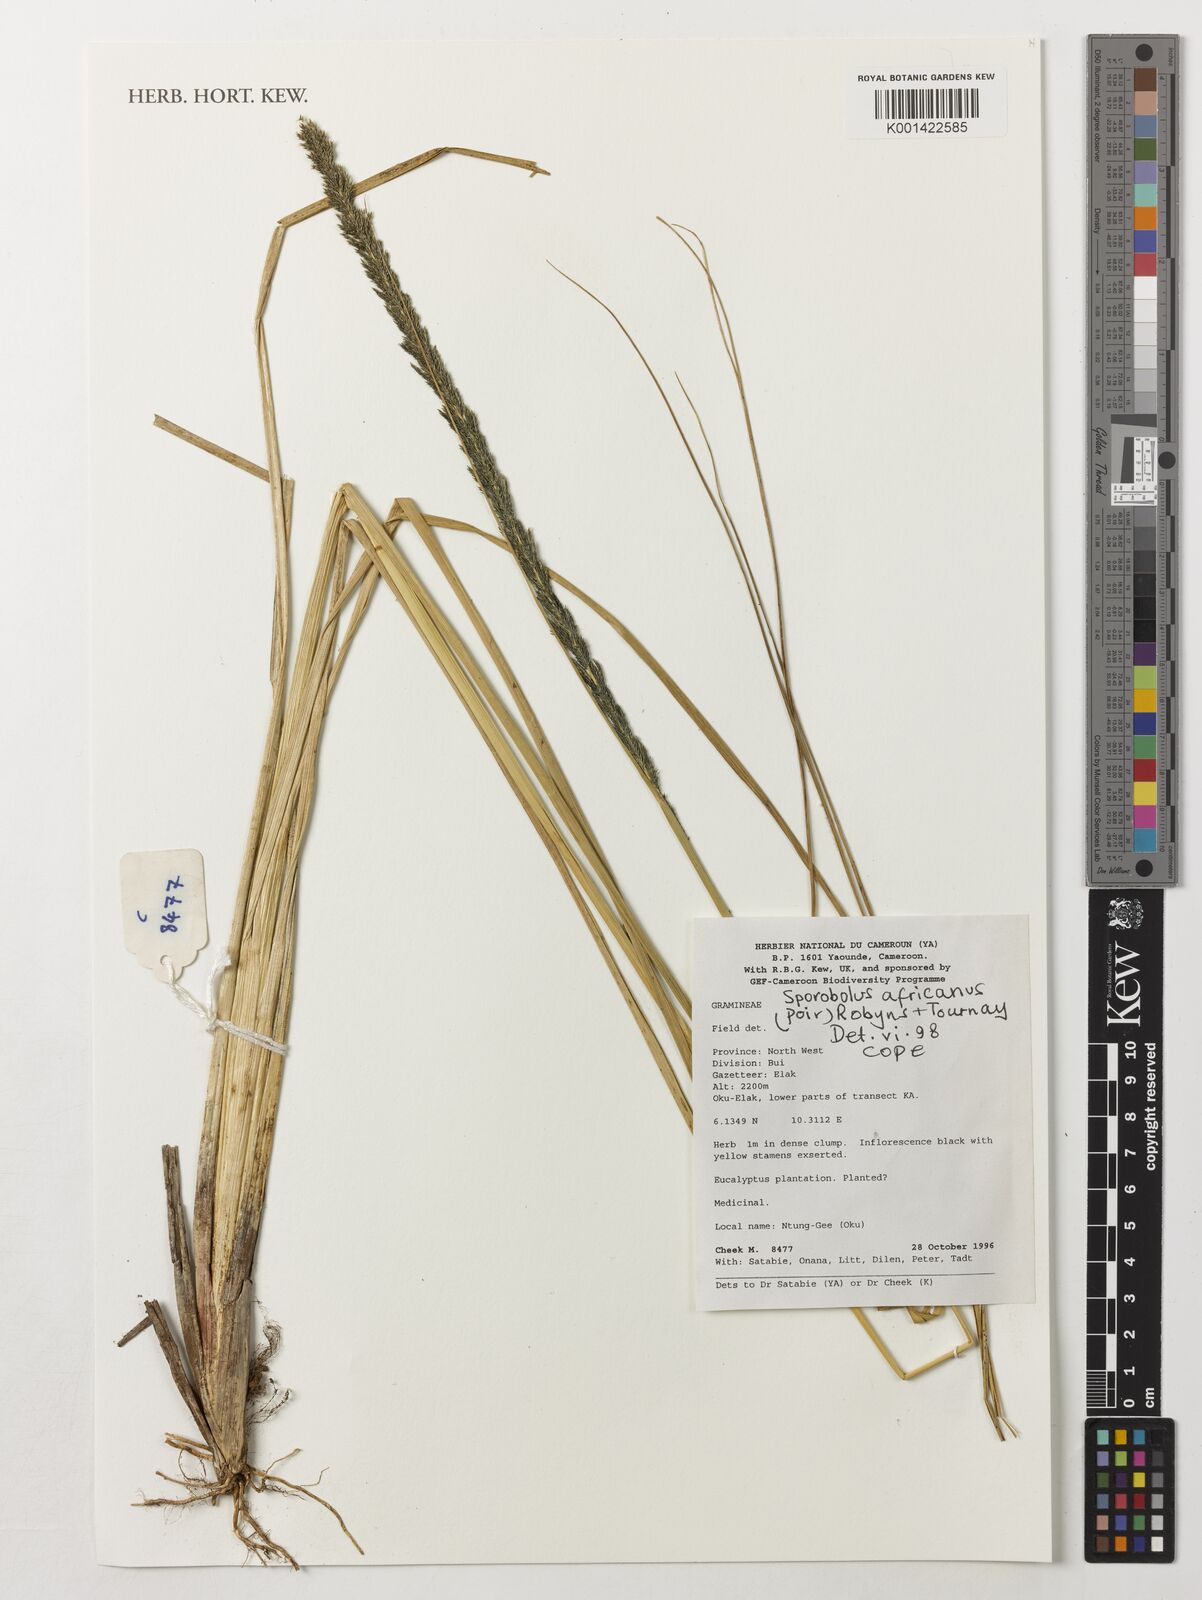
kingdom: Plantae
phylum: Tracheophyta
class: Liliopsida
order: Poales
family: Poaceae
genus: Sporobolus
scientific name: Sporobolus africanus
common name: African dropseed
